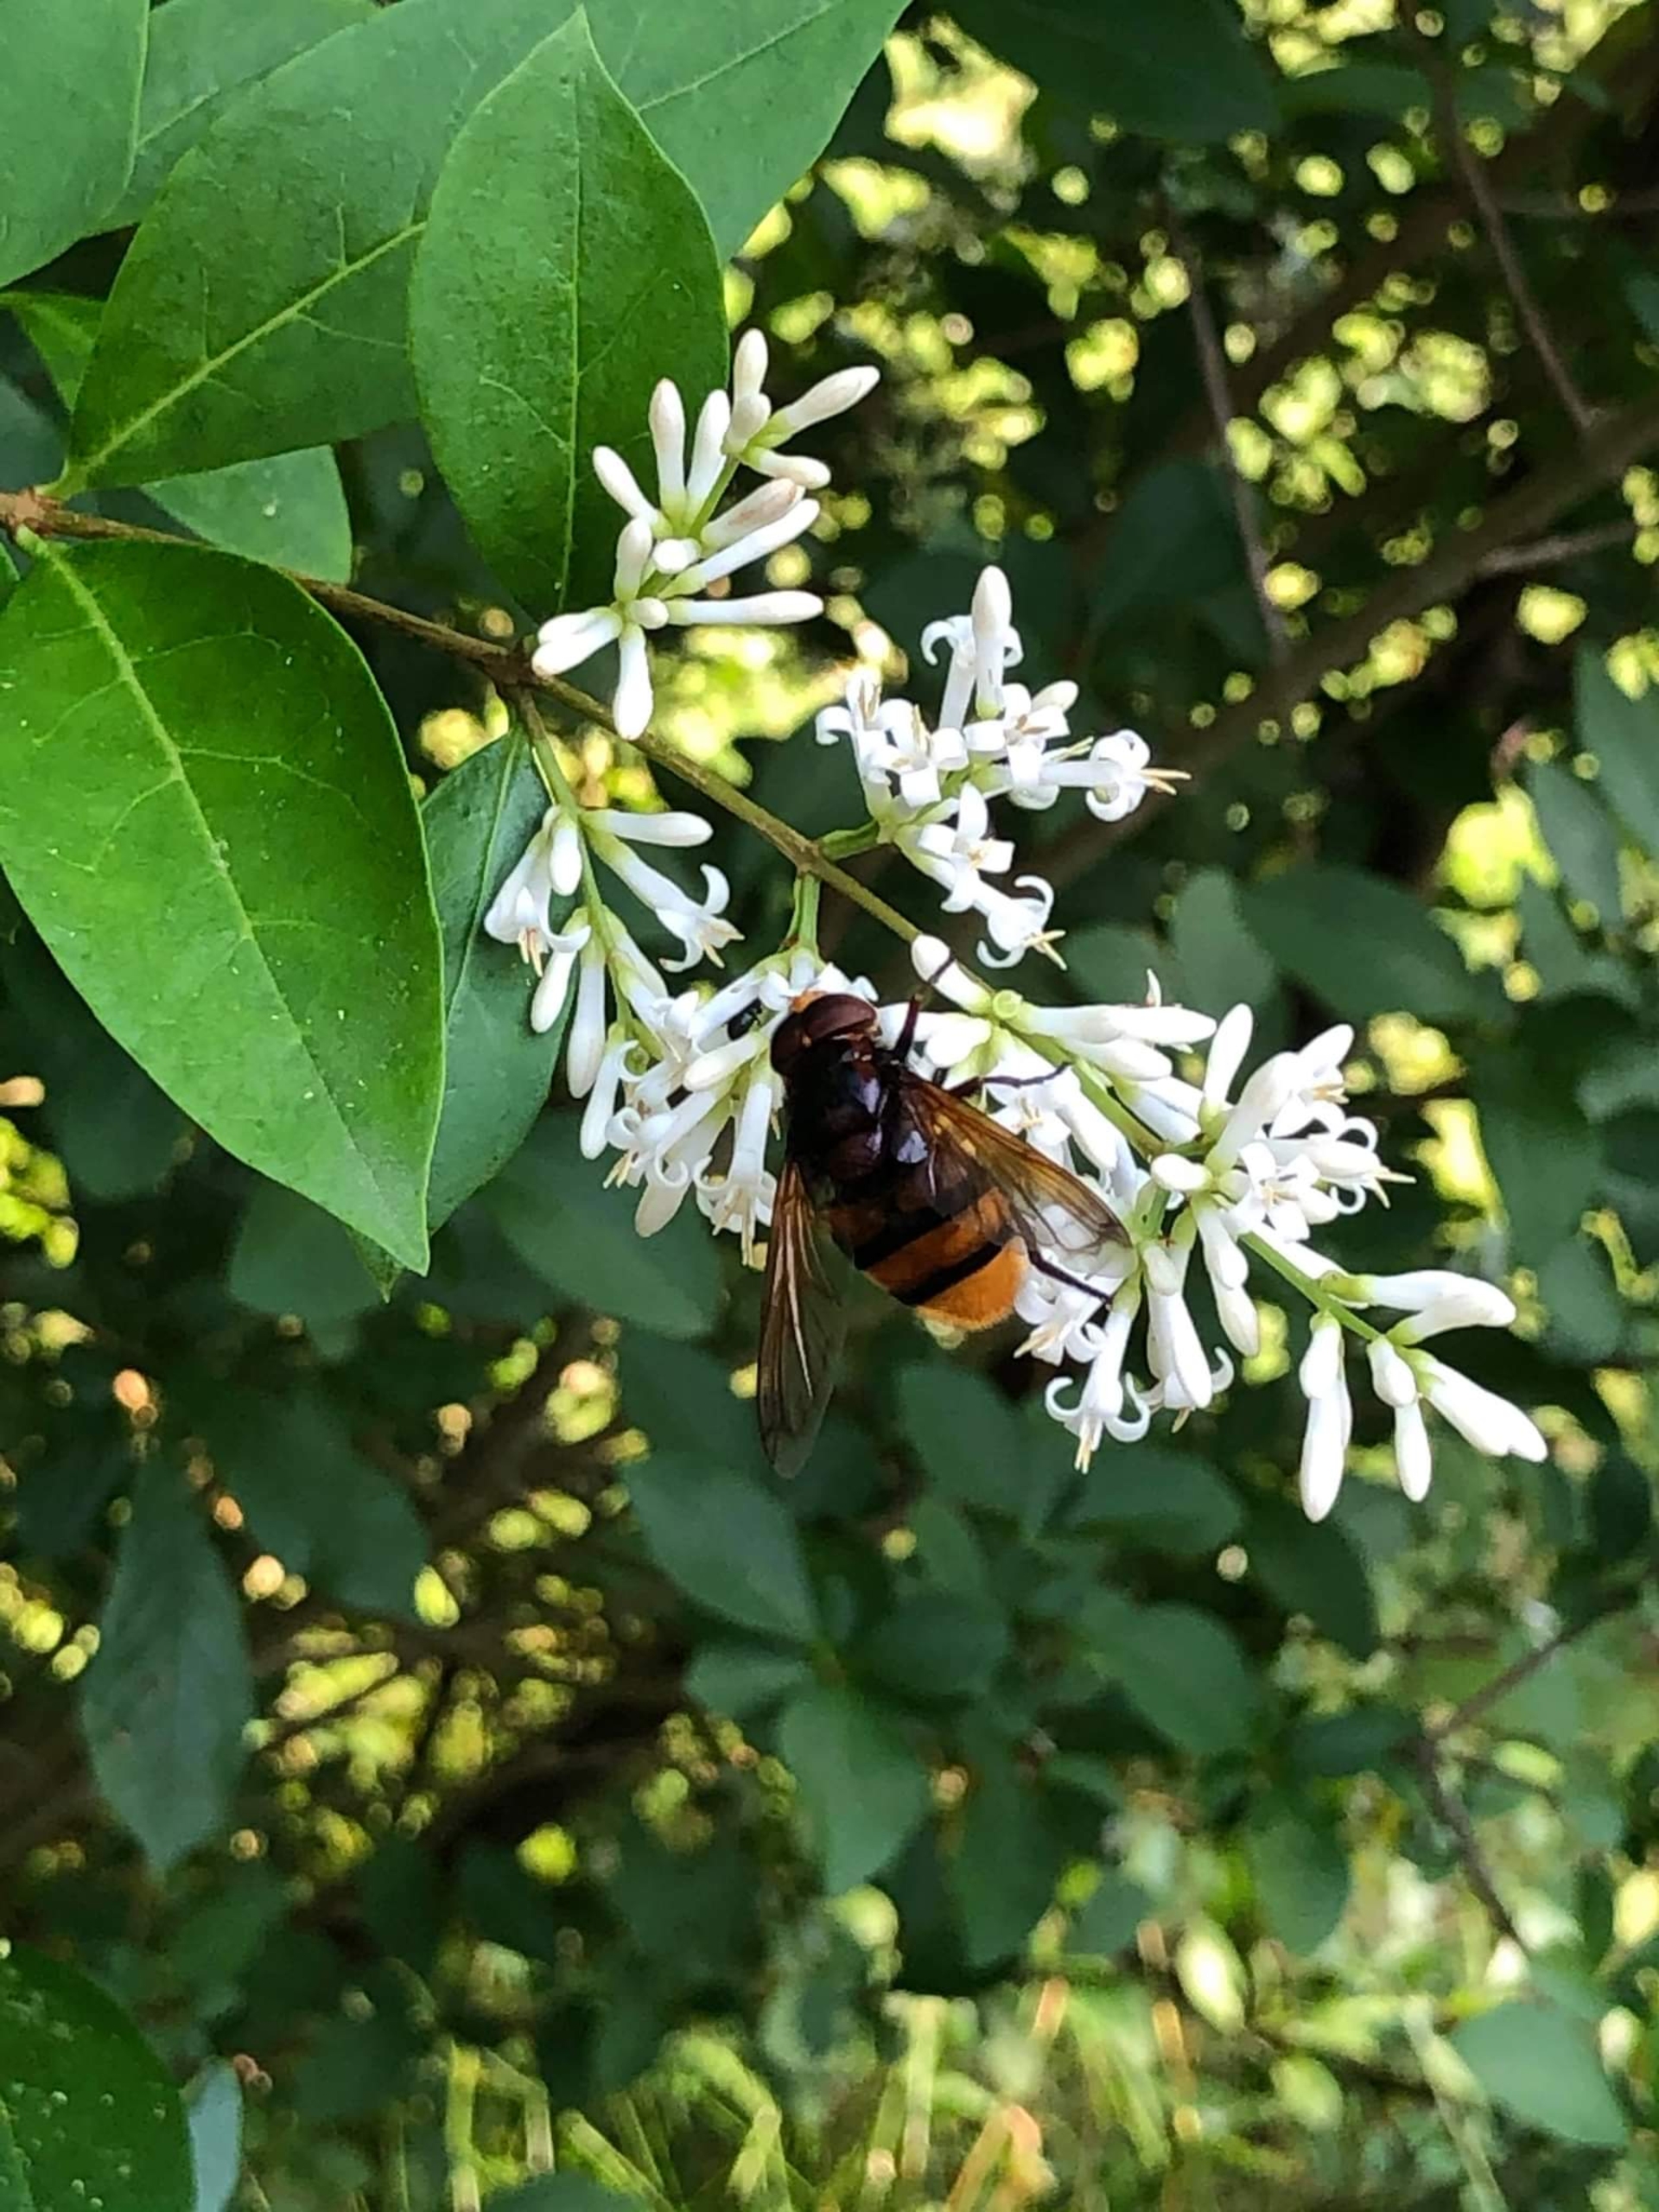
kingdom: Animalia
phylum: Arthropoda
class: Insecta
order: Diptera
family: Syrphidae
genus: Volucella
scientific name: Volucella zonaria
